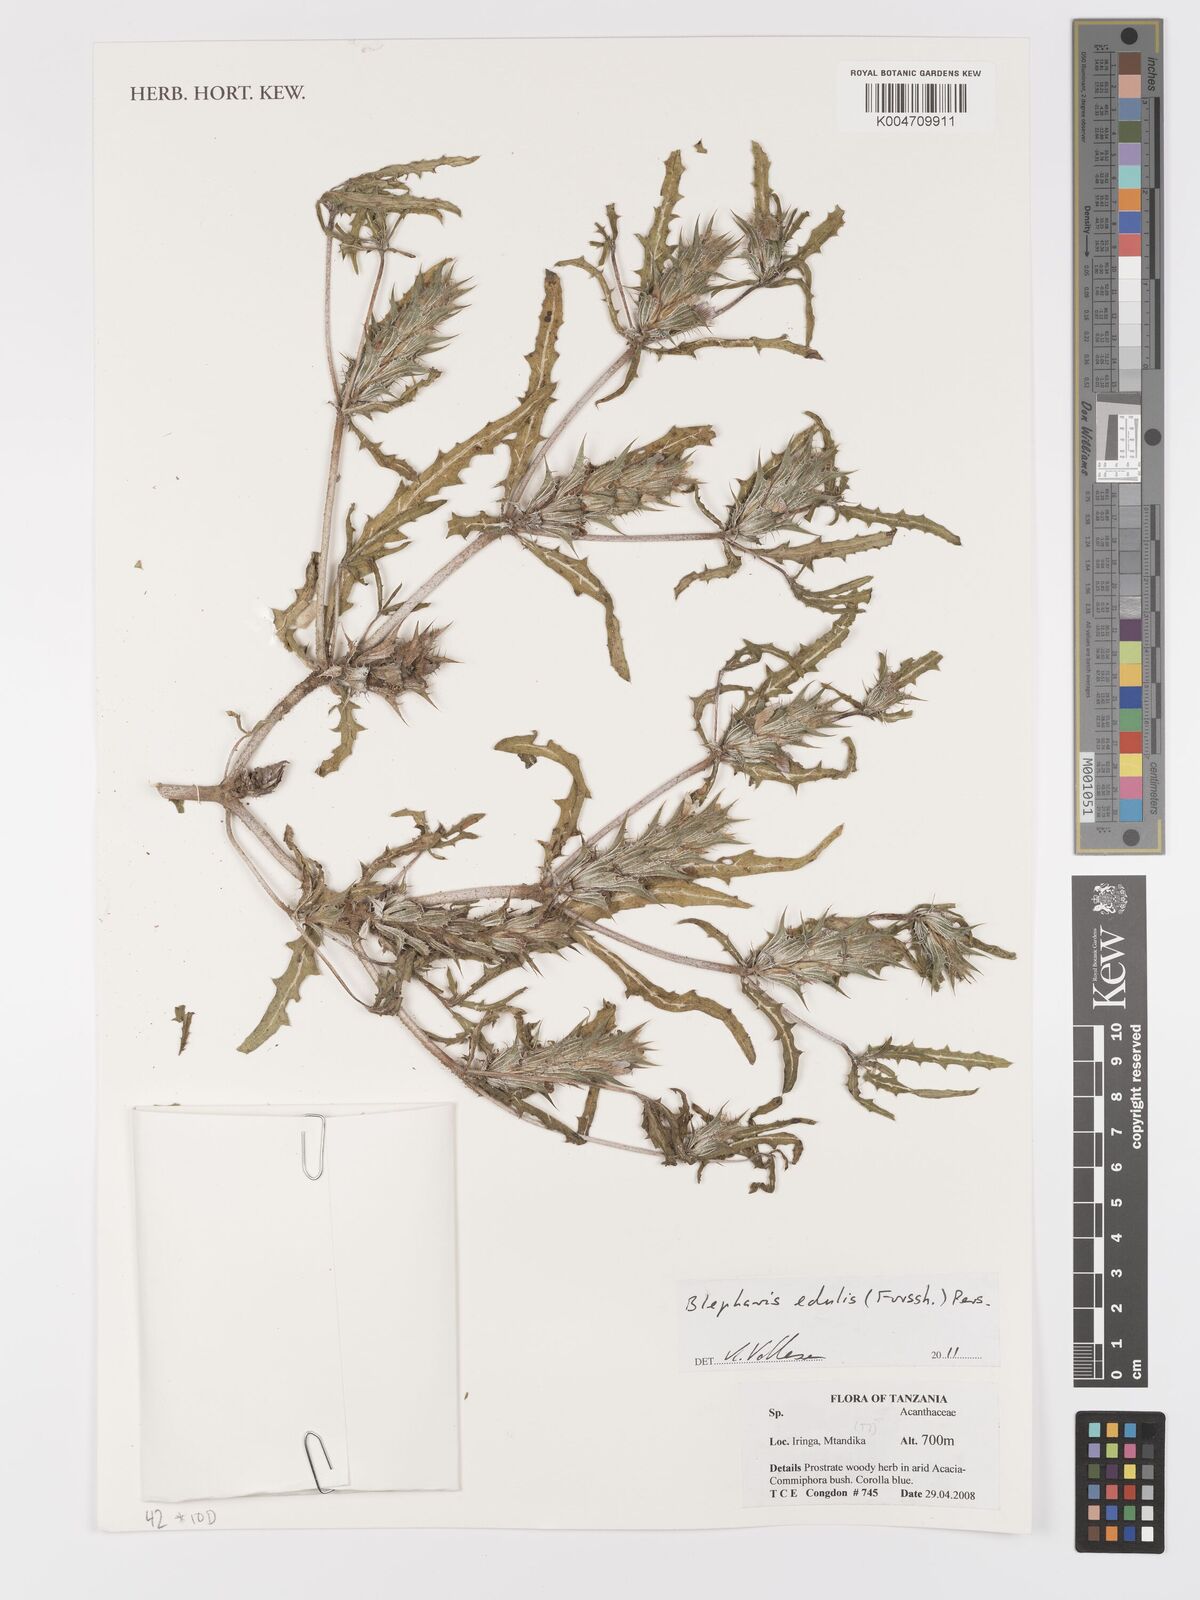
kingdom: Plantae
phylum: Tracheophyta
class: Magnoliopsida
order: Lamiales
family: Acanthaceae
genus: Blepharis
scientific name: Blepharis edulis
